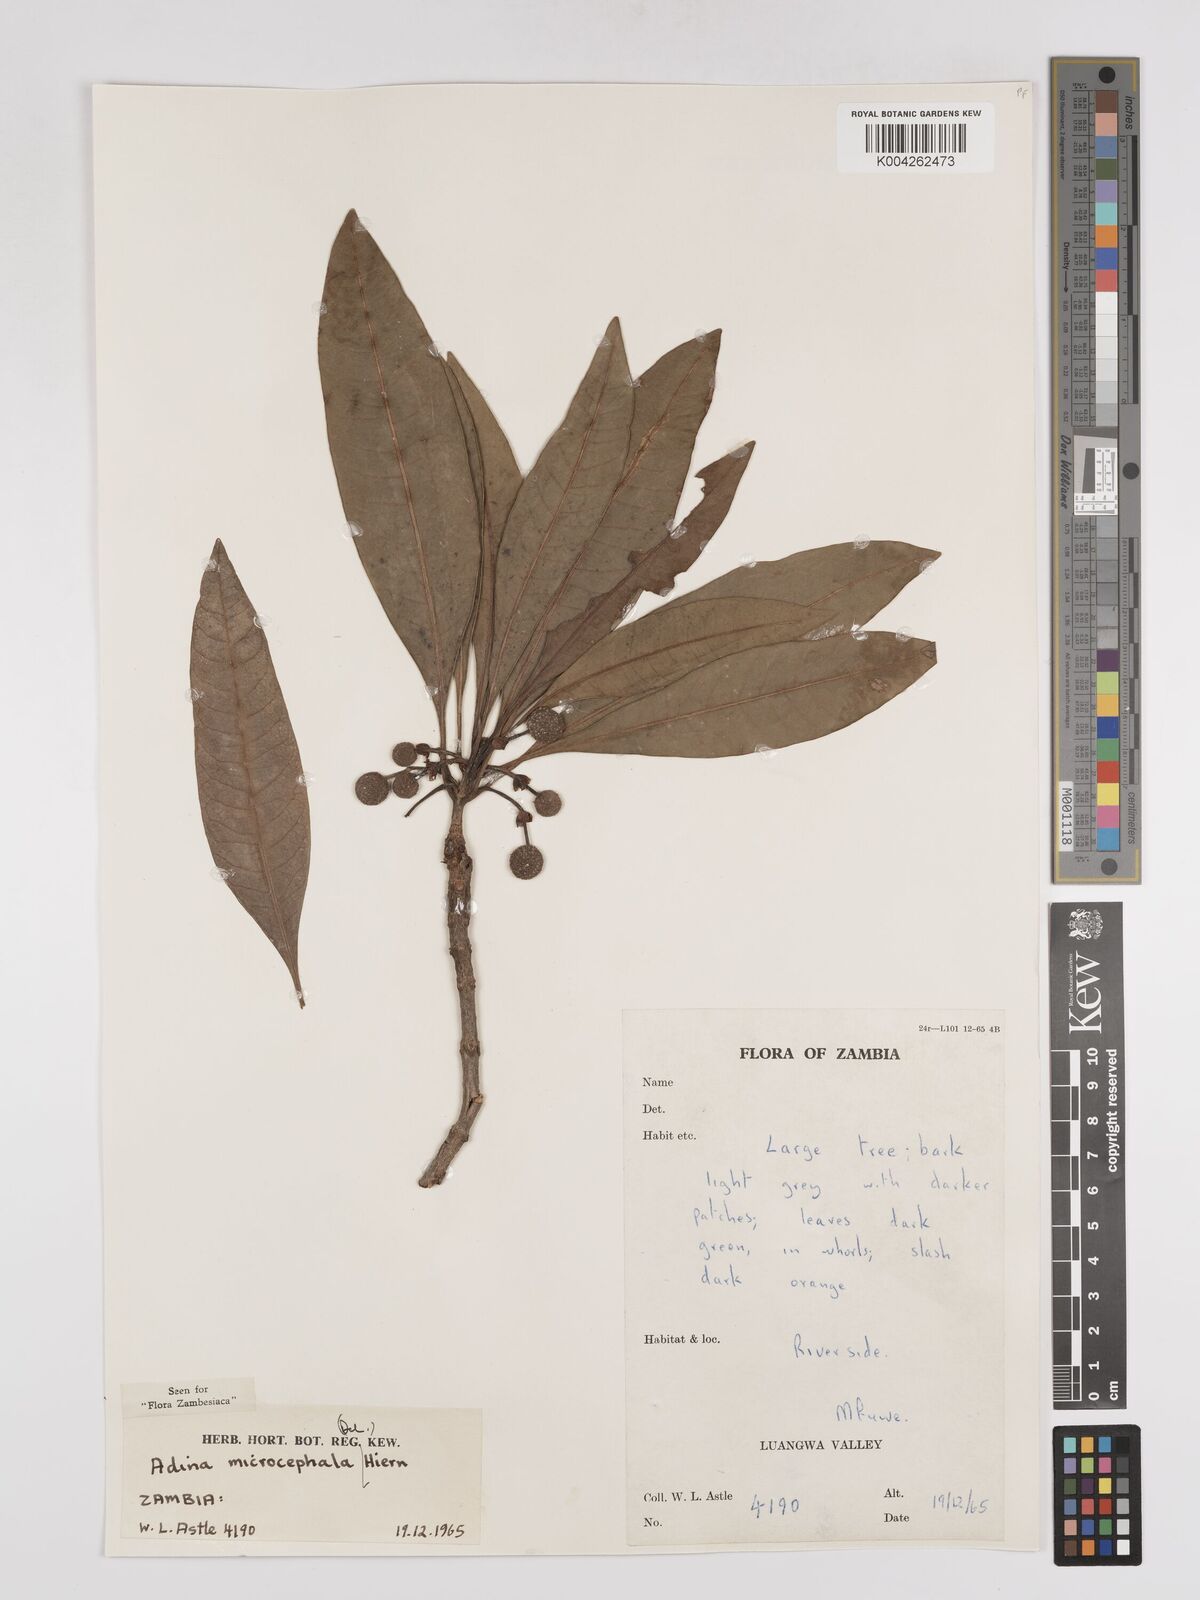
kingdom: Plantae
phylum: Tracheophyta
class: Magnoliopsida
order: Gentianales
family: Rubiaceae
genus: Breonadia
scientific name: Breonadia salicina
